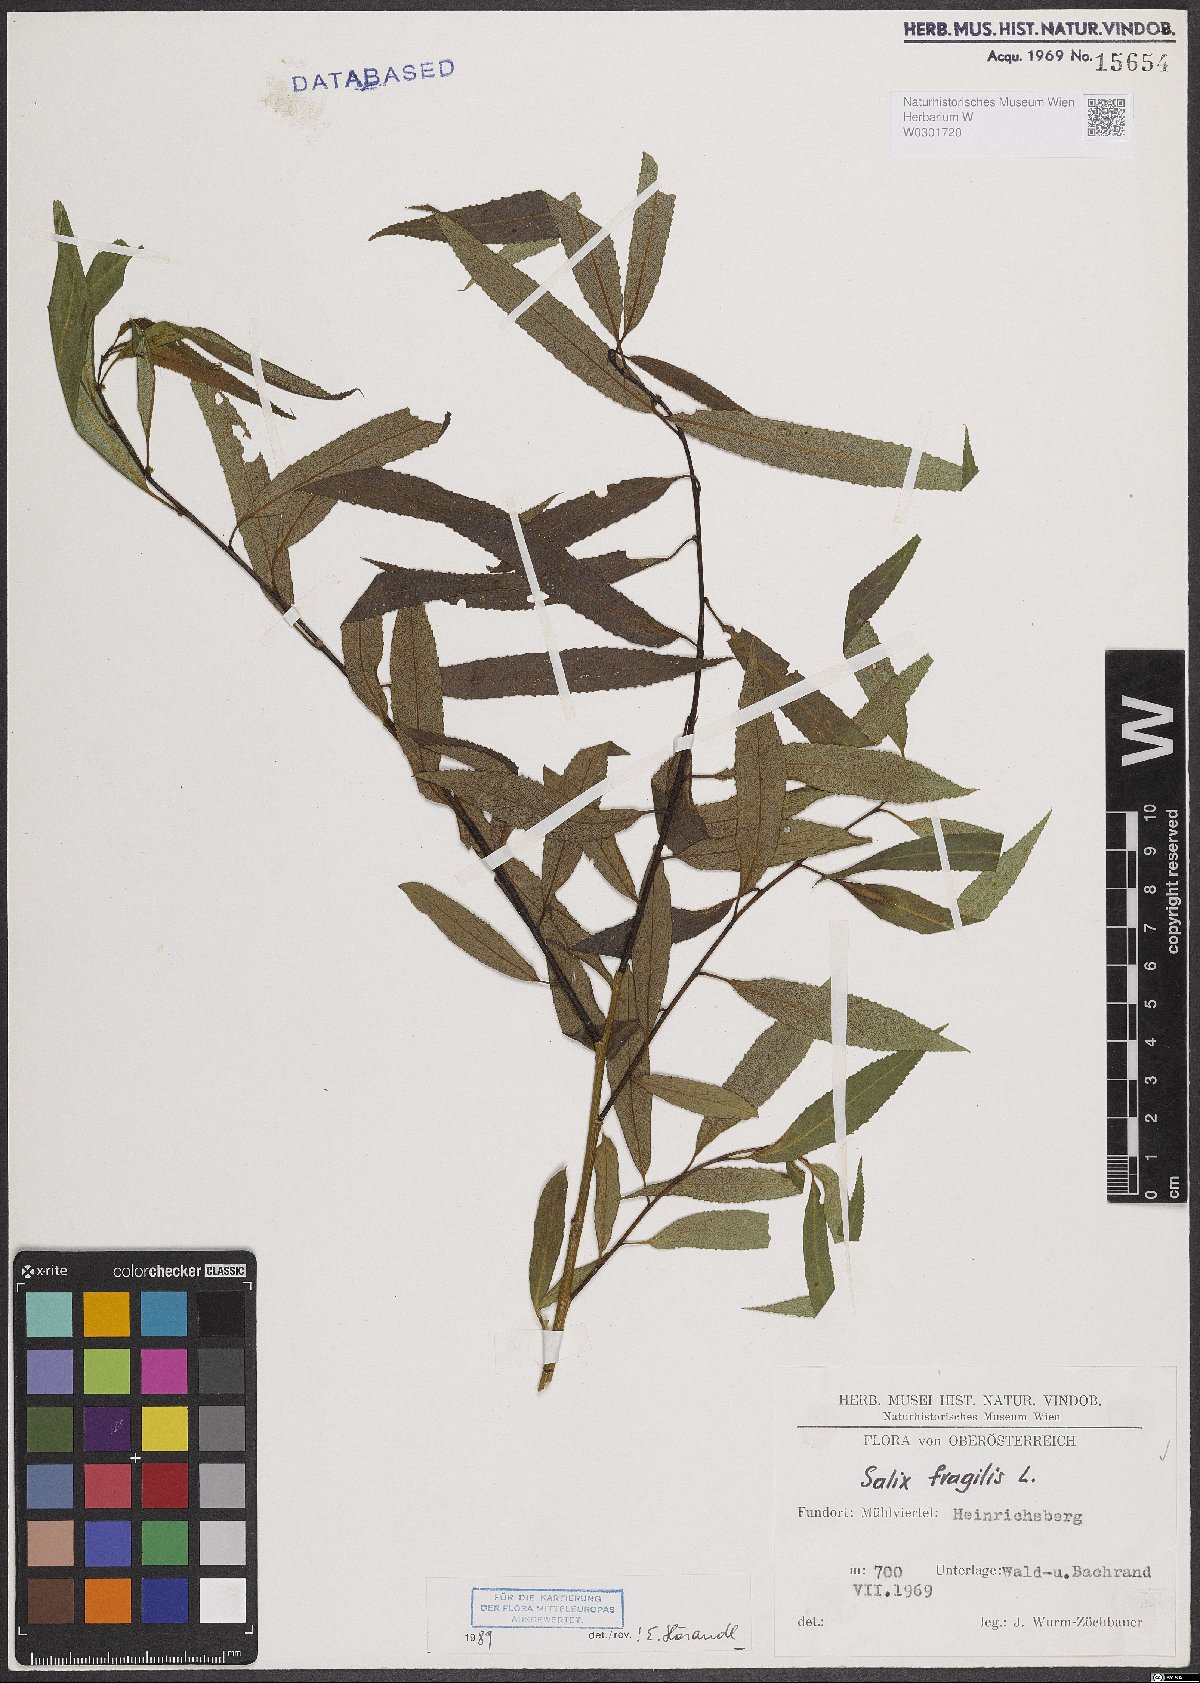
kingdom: Plantae
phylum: Tracheophyta
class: Magnoliopsida
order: Malpighiales
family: Salicaceae
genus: Salix
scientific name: Salix fragilis
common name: Crack willow
